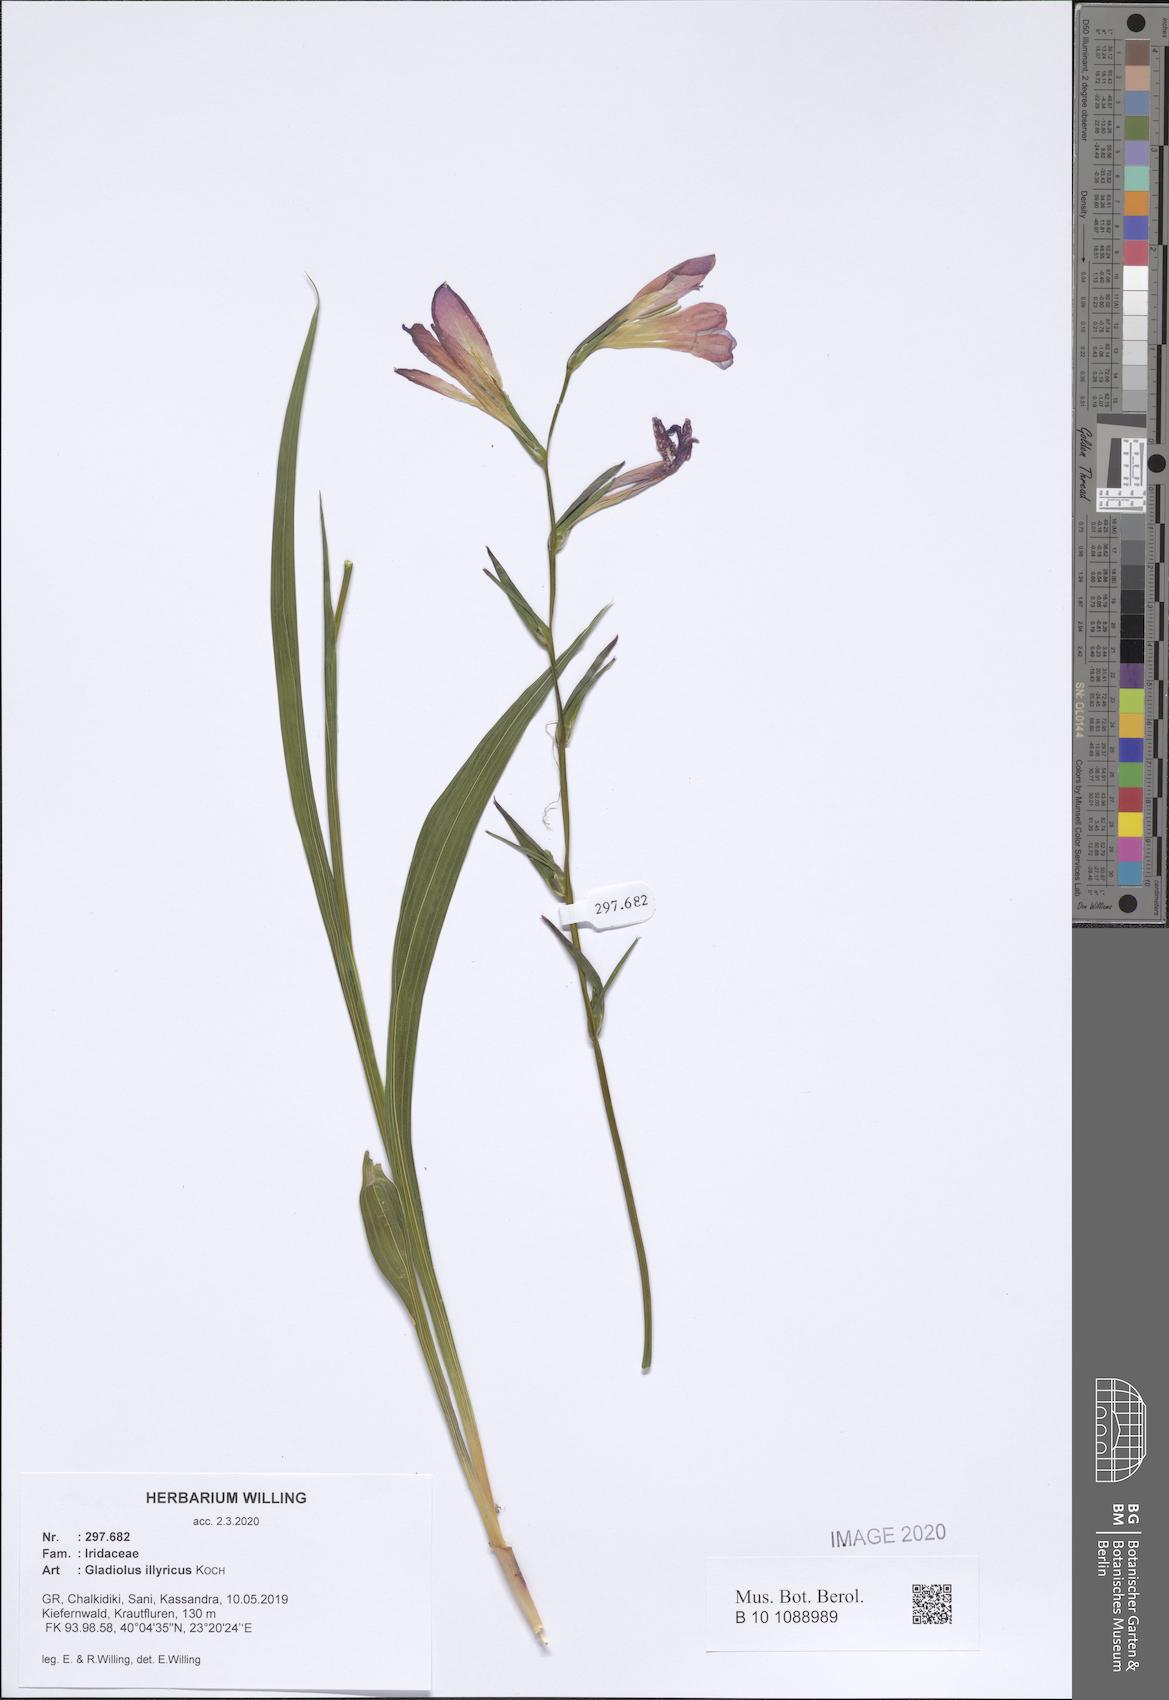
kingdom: Plantae
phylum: Tracheophyta
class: Liliopsida
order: Asparagales
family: Iridaceae
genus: Gladiolus
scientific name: Gladiolus illyricus
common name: Wild gladiolus
